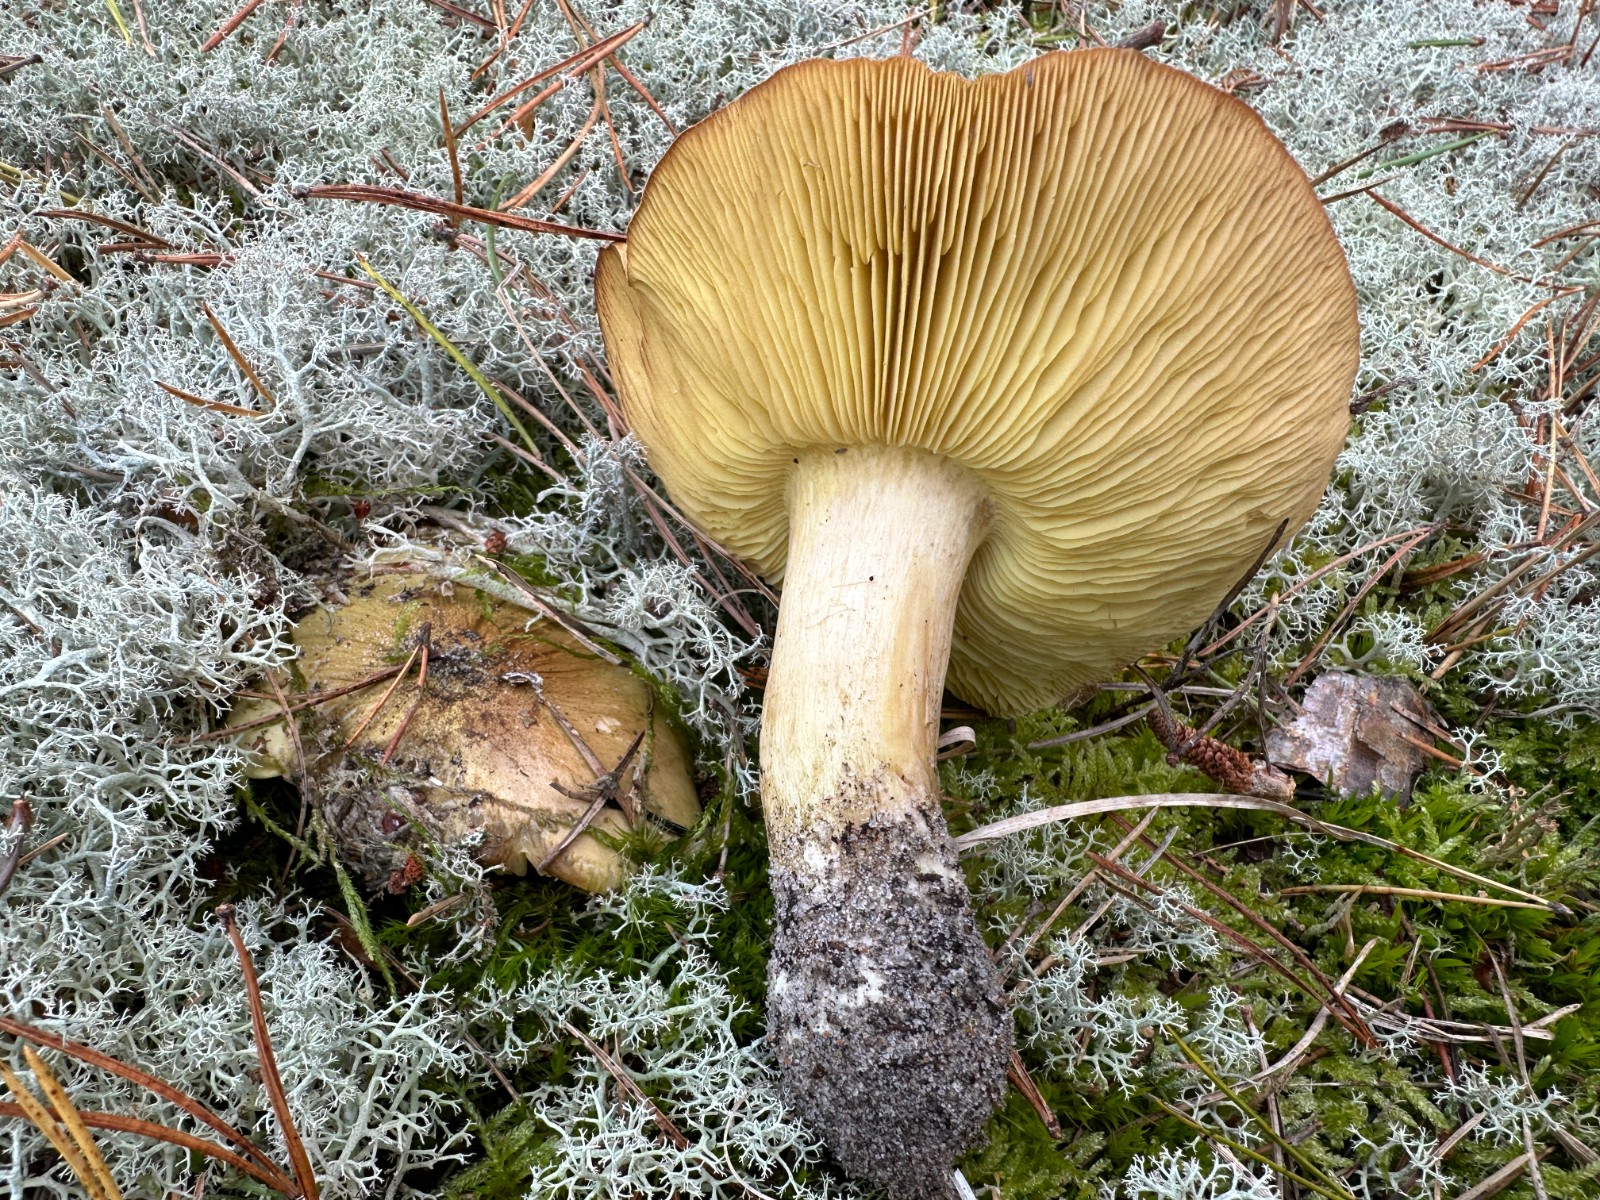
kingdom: Fungi
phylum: Basidiomycota
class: Agaricomycetes
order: Agaricales
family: Tricholomataceae
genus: Tricholoma
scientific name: Tricholoma equestre
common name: ægte ridderhat
